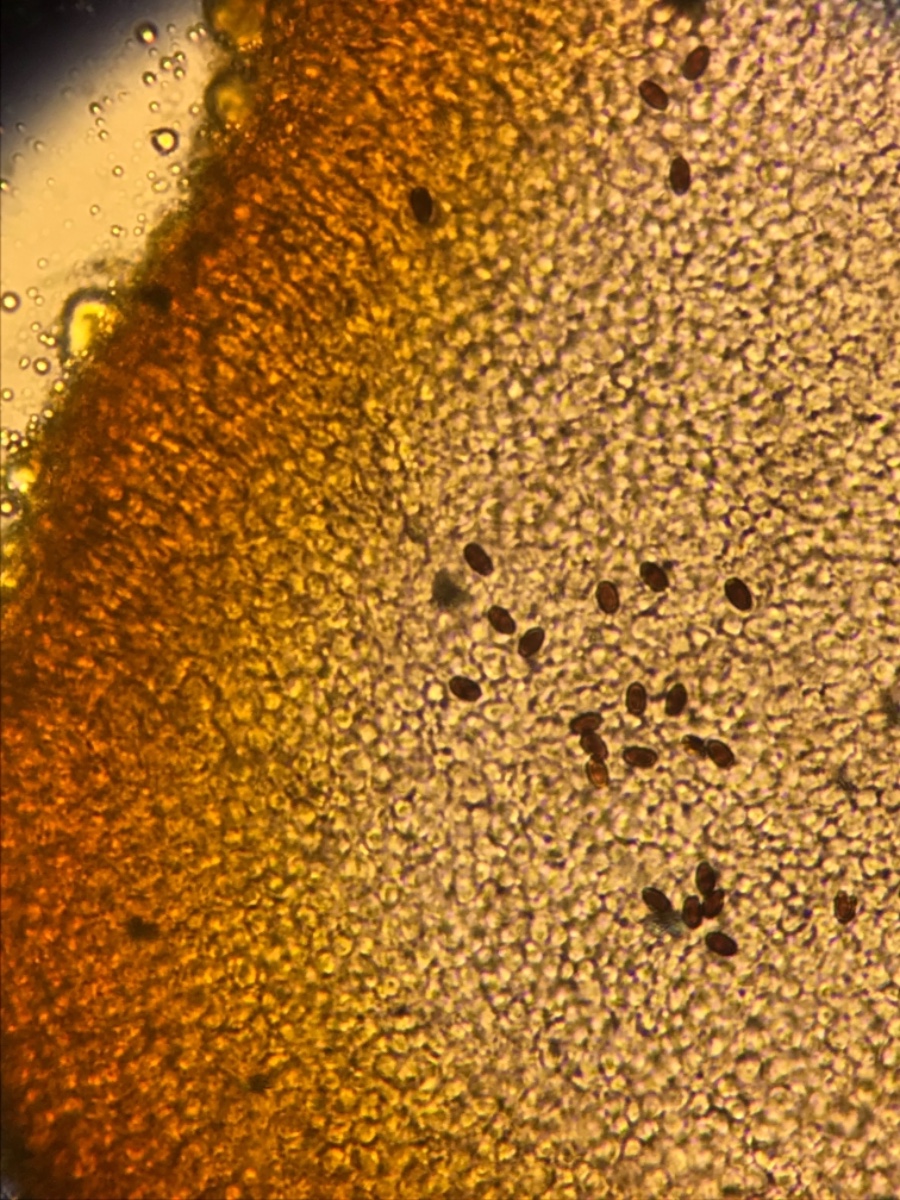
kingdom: Fungi
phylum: Basidiomycota
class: Agaricomycetes
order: Agaricales
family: Mycenaceae
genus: Mycena
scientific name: Mycena olivaceomarginata
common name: brunægget huesvamp
